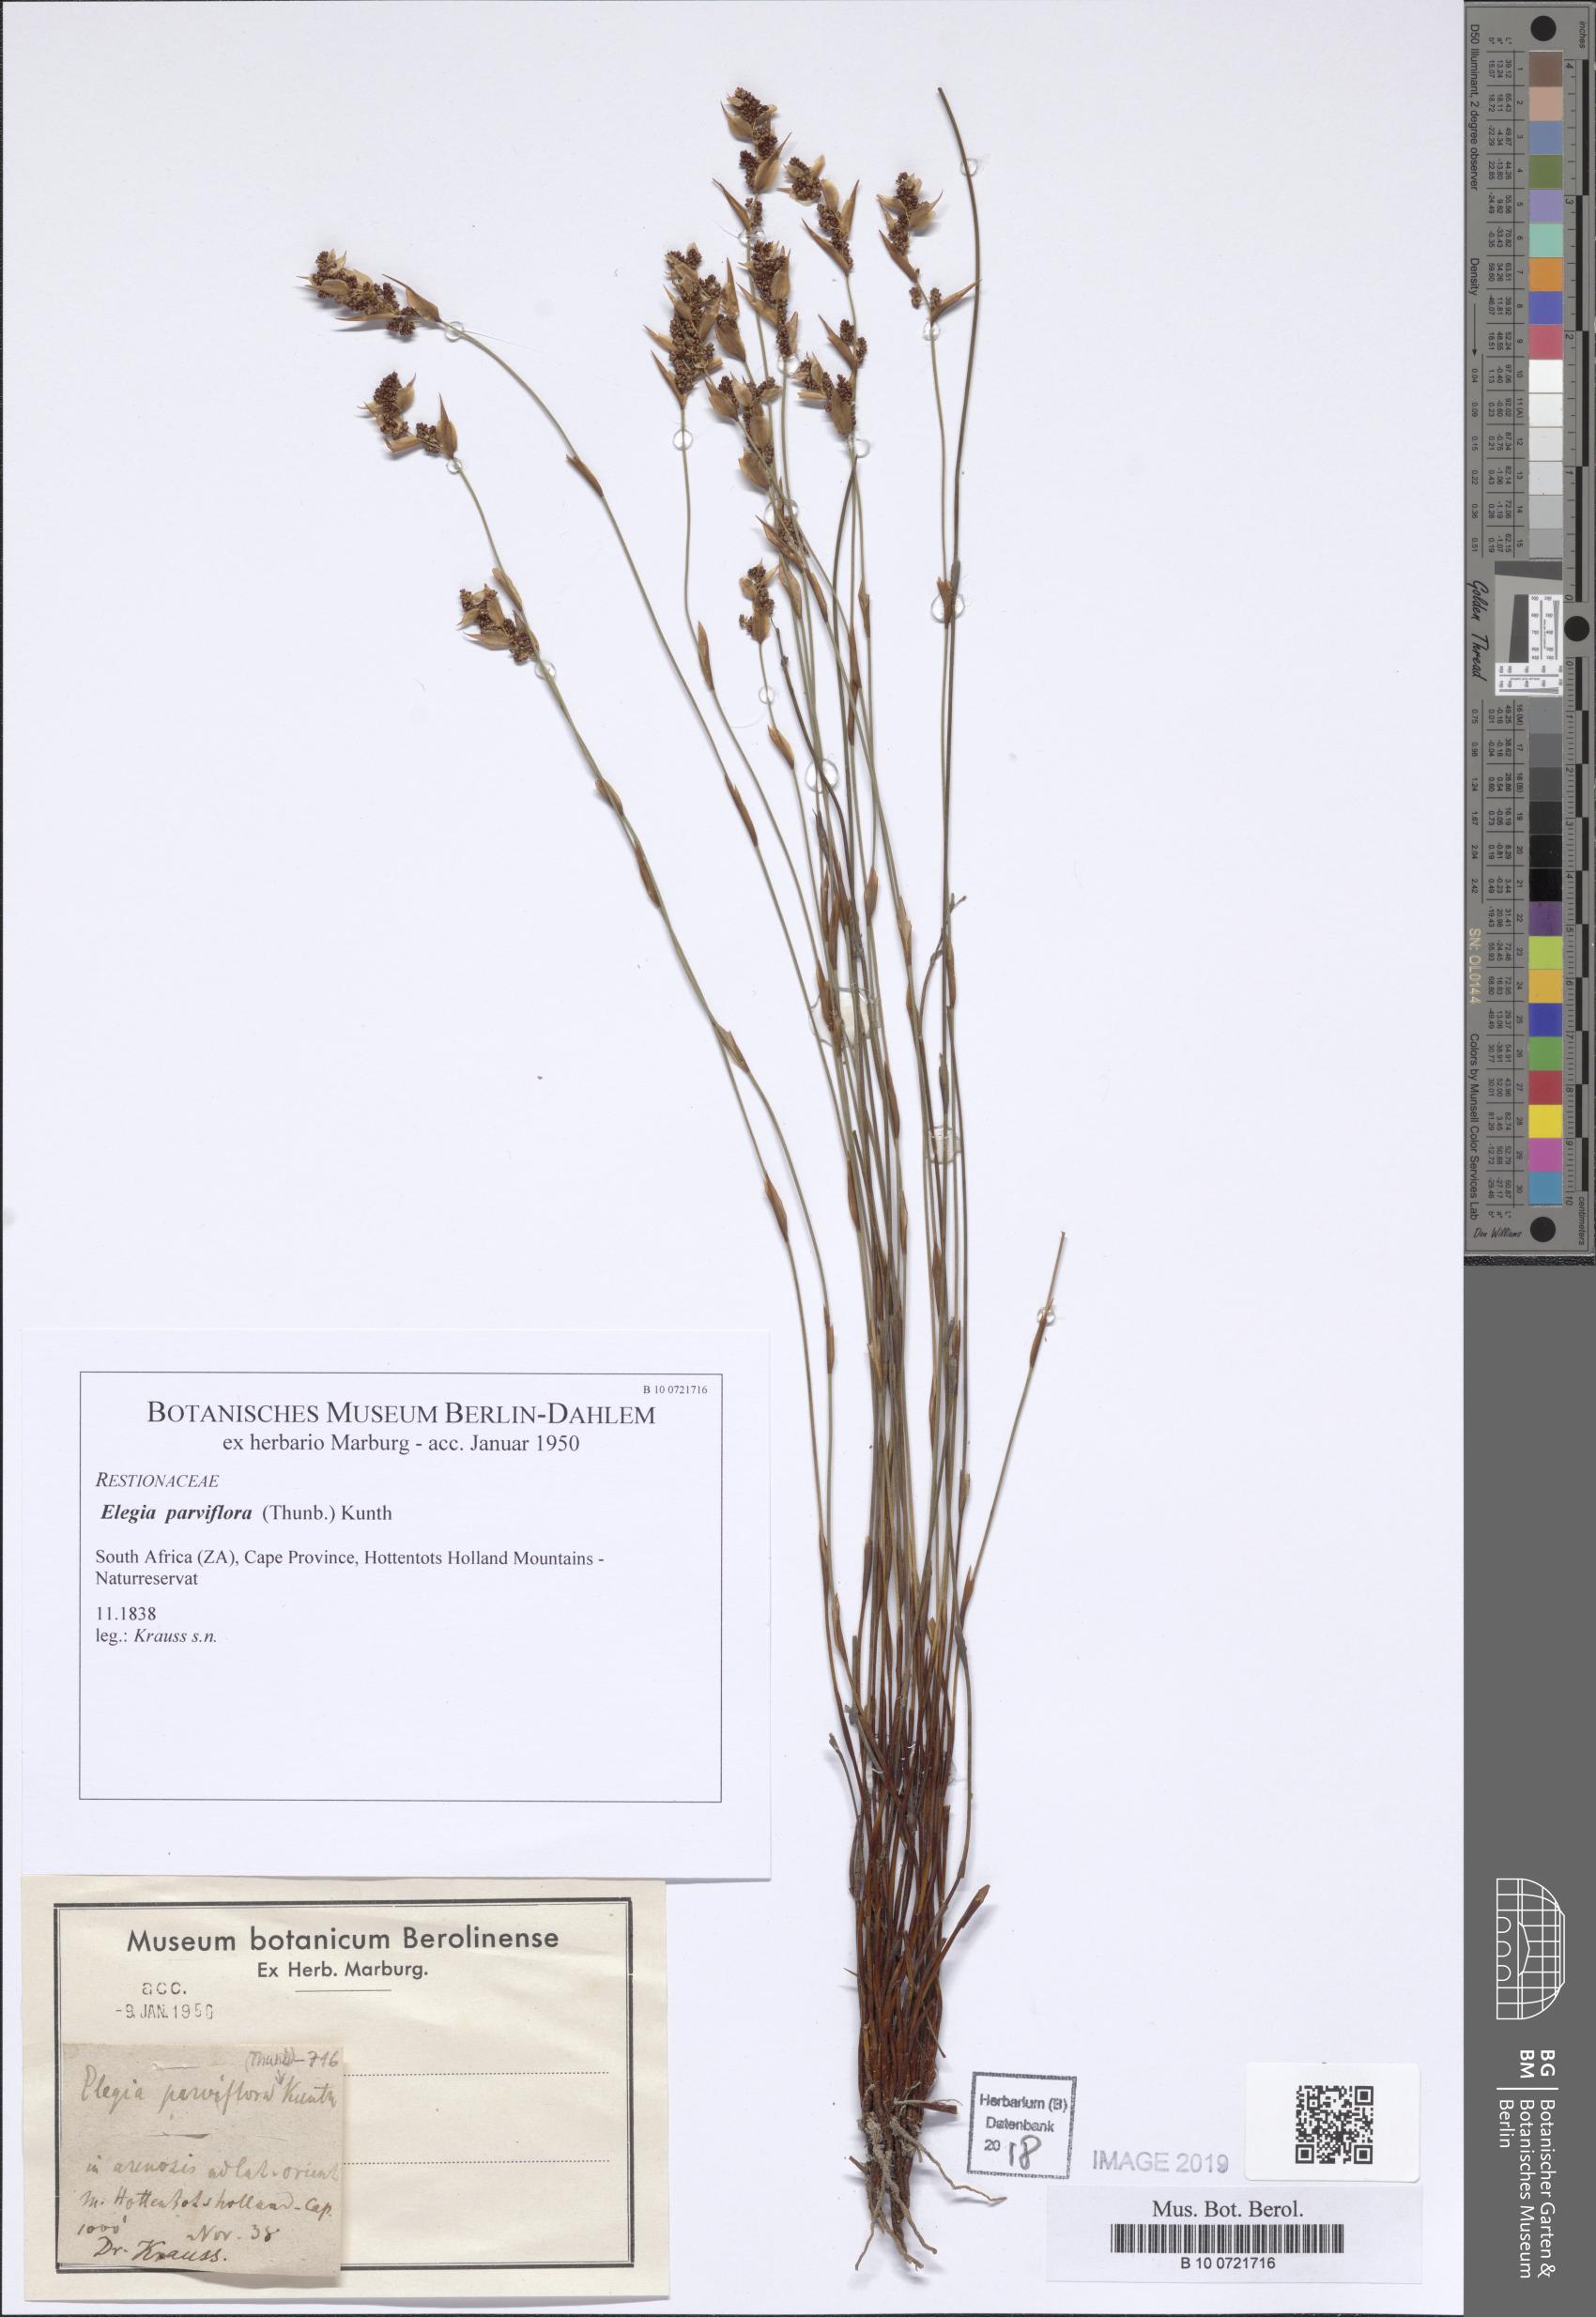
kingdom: Plantae
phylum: Tracheophyta
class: Liliopsida
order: Poales
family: Restionaceae
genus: Cannomois
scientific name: Cannomois parviflora
